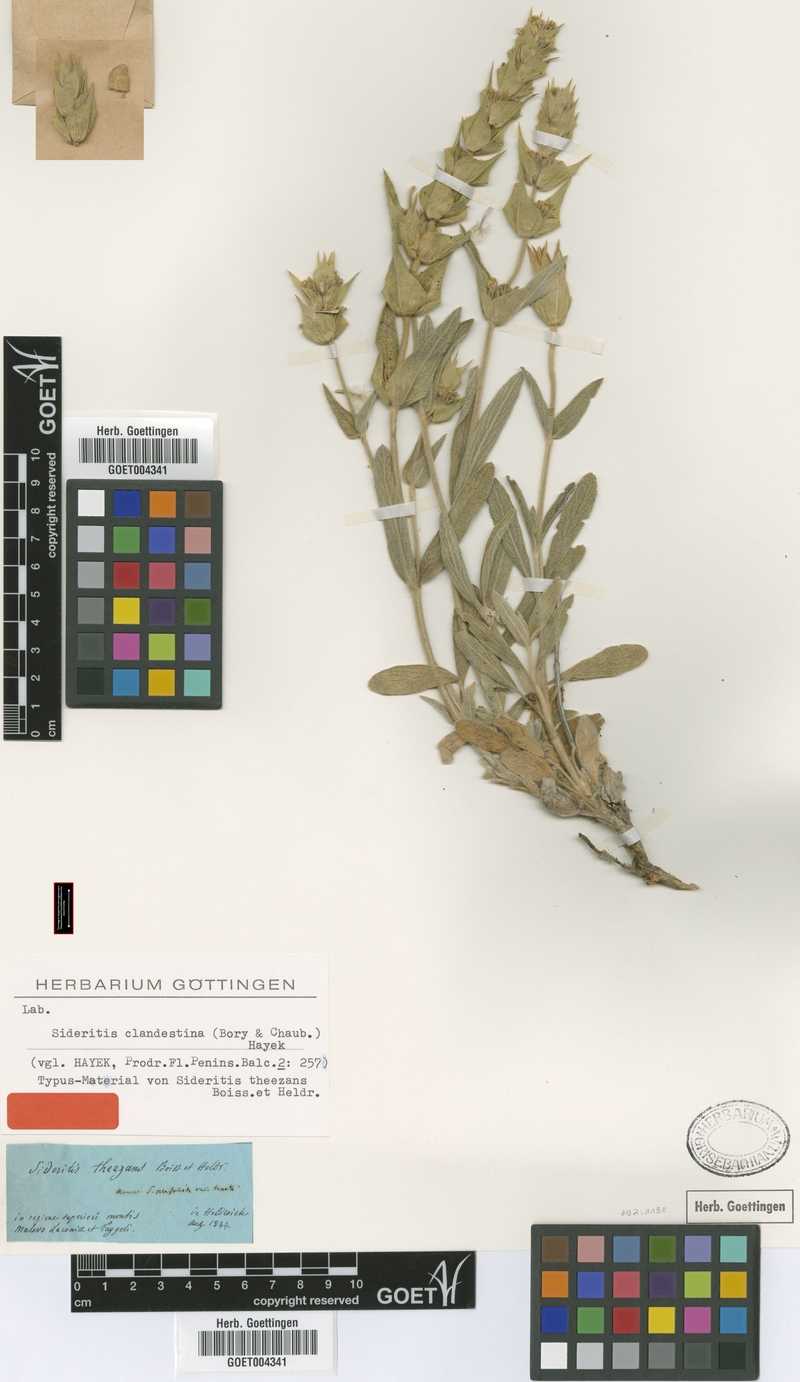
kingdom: Plantae
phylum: Tracheophyta
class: Magnoliopsida
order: Lamiales
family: Lamiaceae
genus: Sideritis
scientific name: Sideritis clandestina
